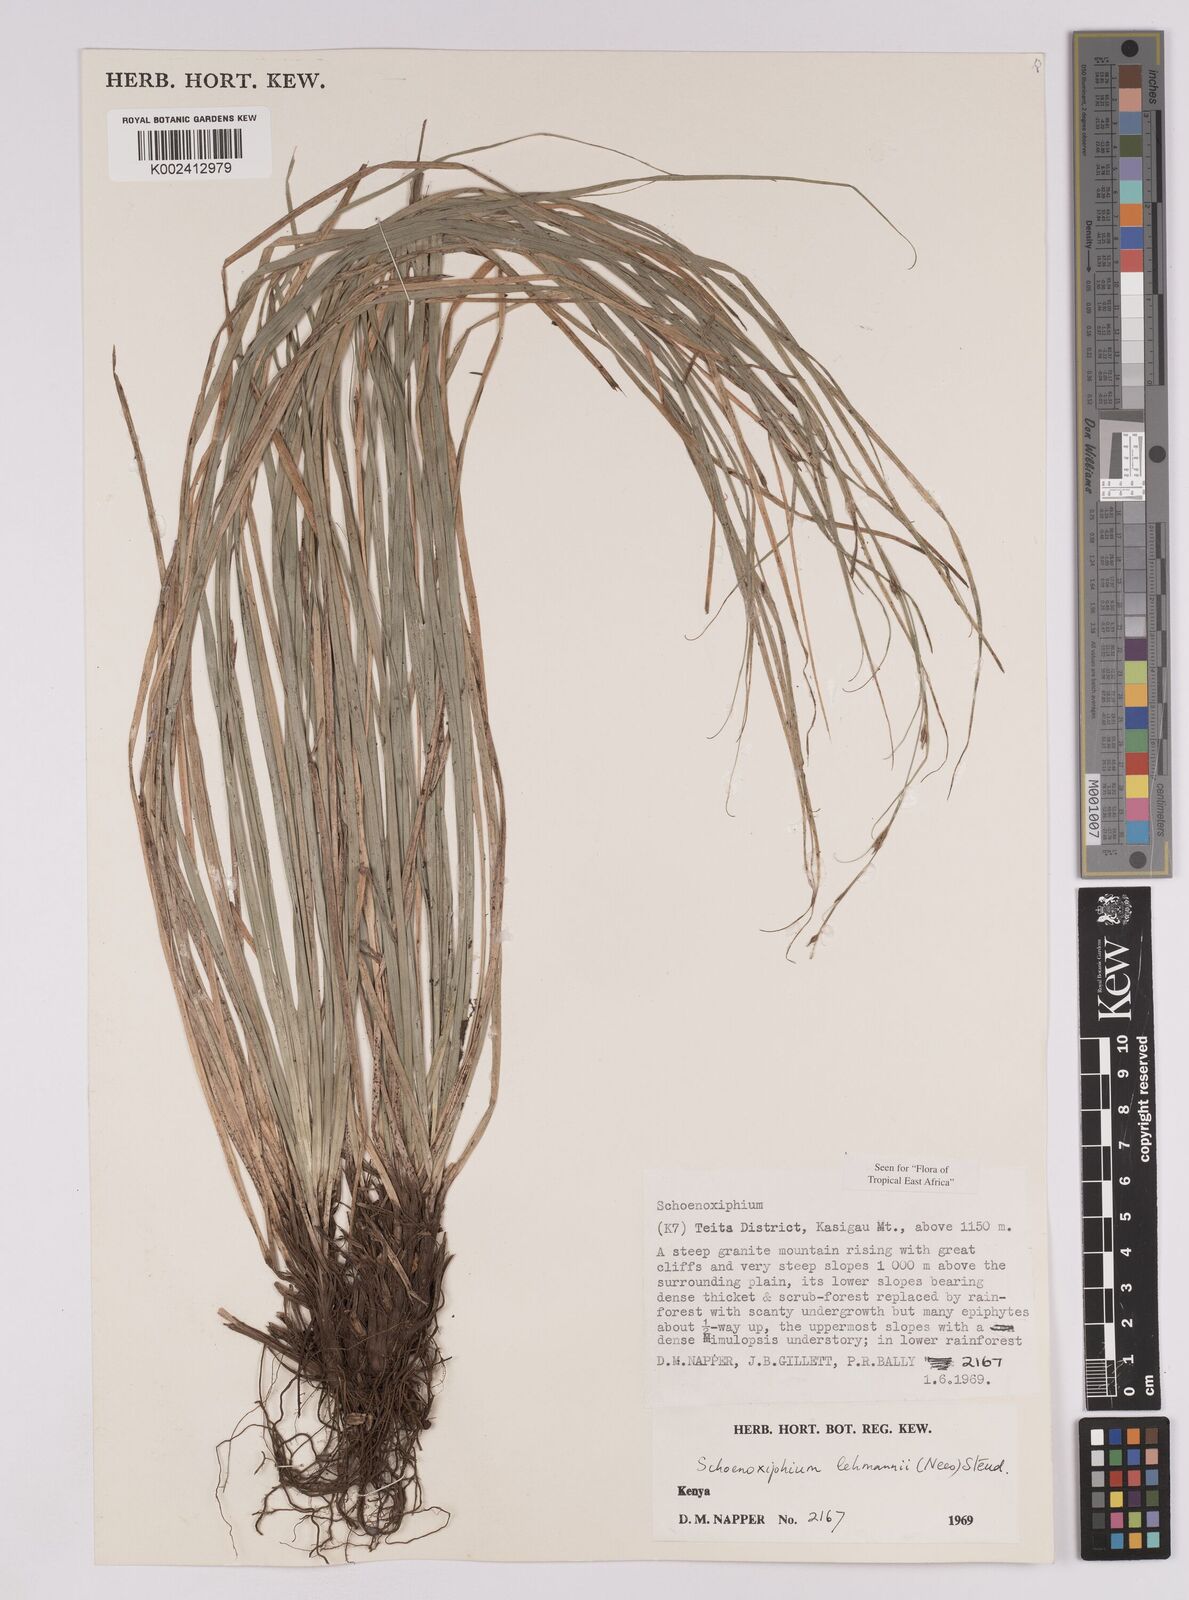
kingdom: Plantae
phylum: Tracheophyta
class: Liliopsida
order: Poales
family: Cyperaceae
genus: Carex
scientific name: Carex uhligii
